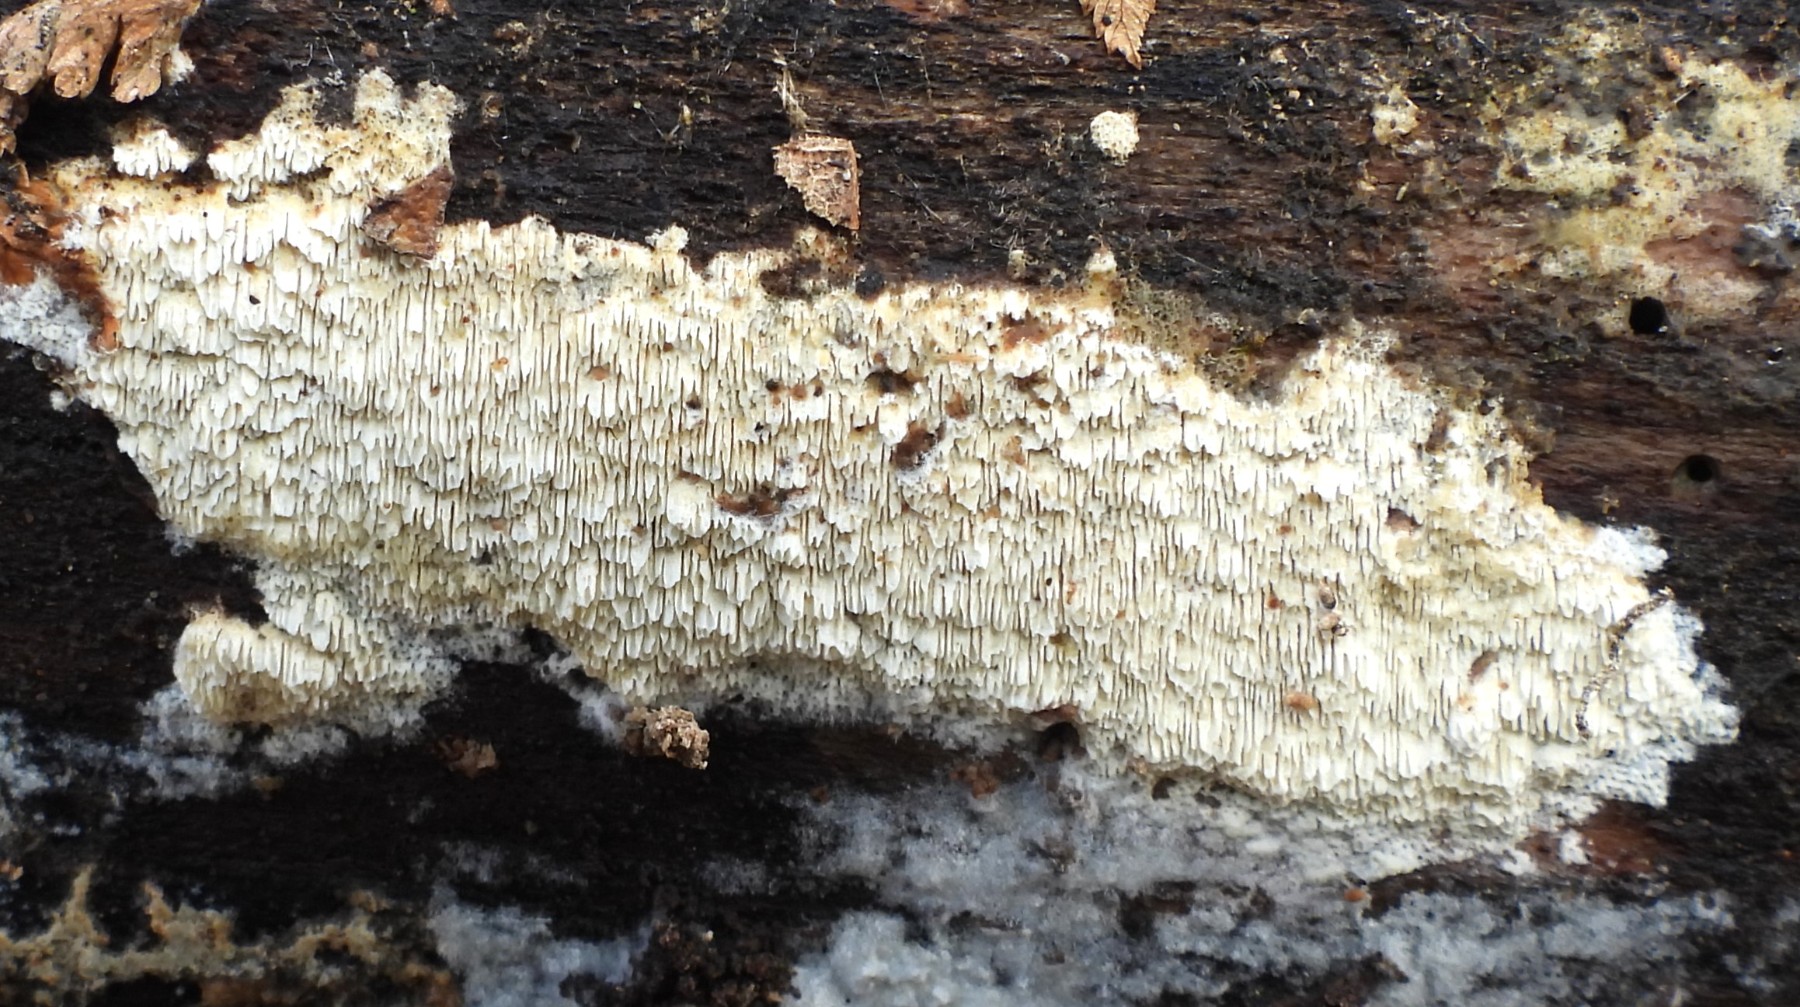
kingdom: Fungi
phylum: Basidiomycota
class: Agaricomycetes
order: Hymenochaetales
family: Schizoporaceae
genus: Schizopora
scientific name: Schizopora paradoxa
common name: hvid tandsvamp
